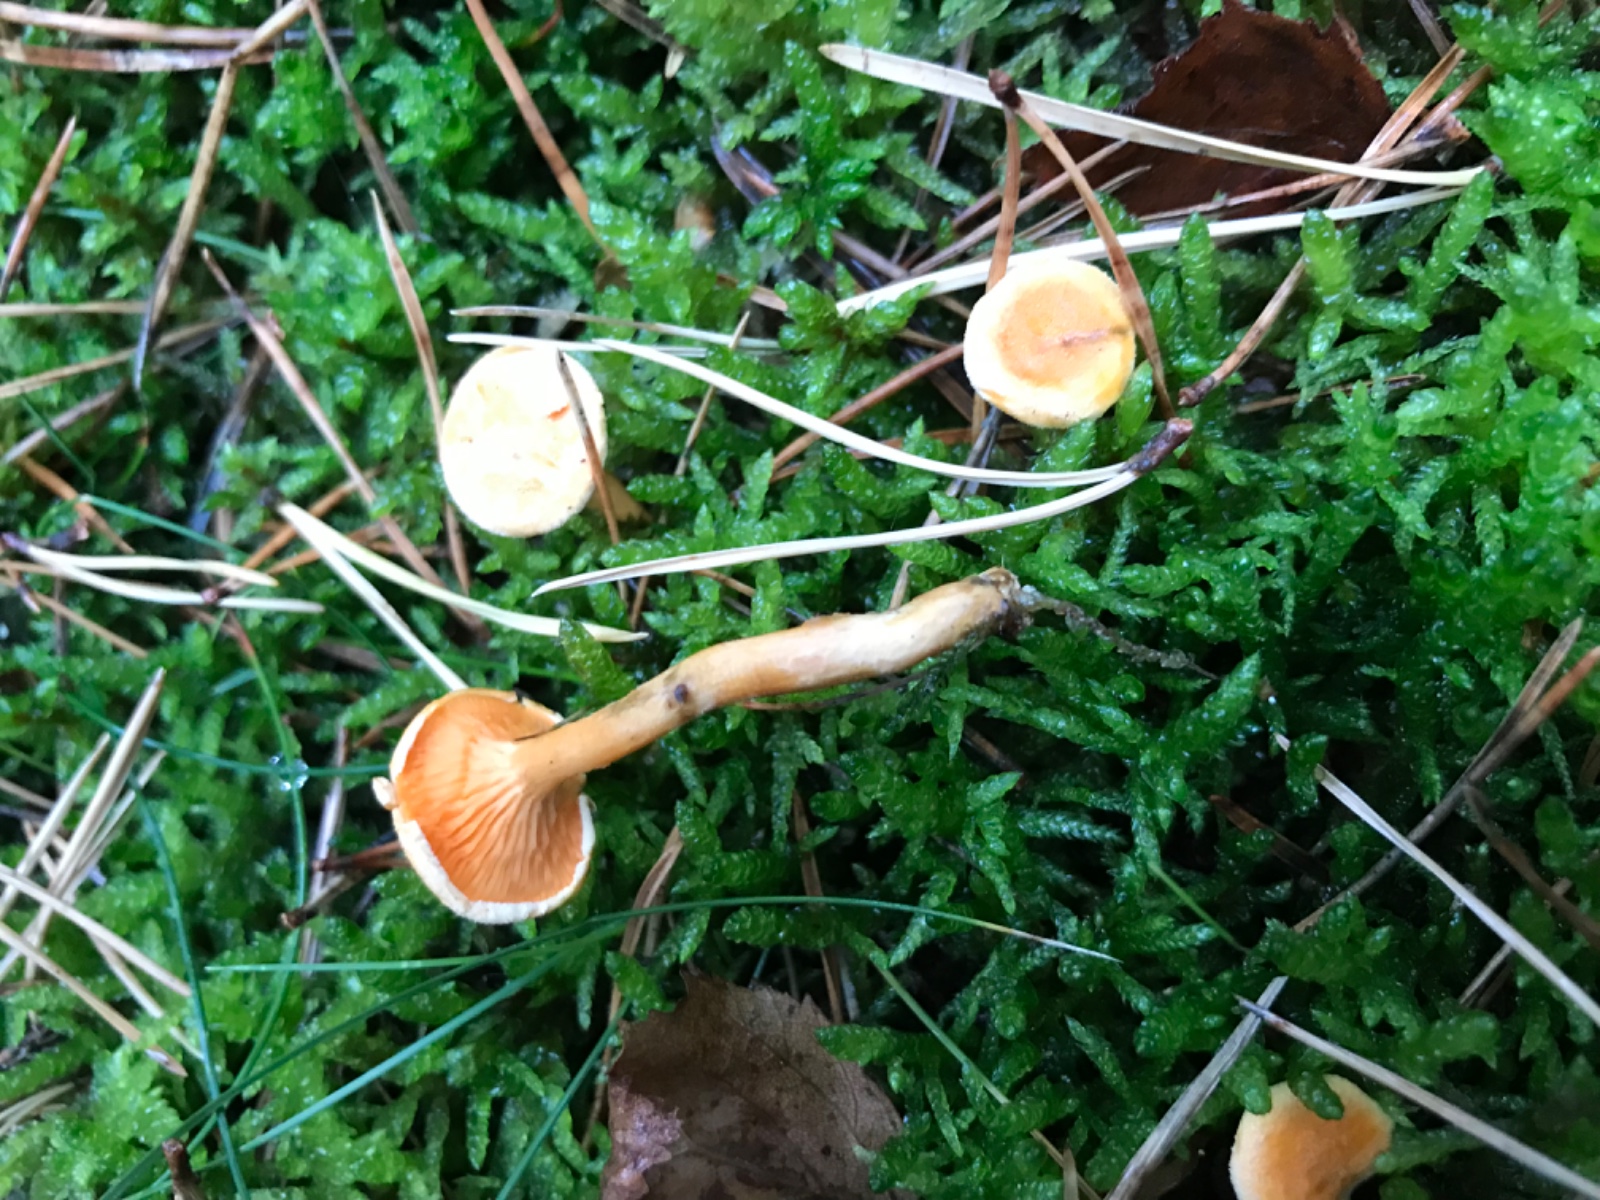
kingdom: Fungi
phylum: Basidiomycota
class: Agaricomycetes
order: Boletales
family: Hygrophoropsidaceae
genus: Hygrophoropsis
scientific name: Hygrophoropsis aurantiaca
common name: almindelig orangekantarel
